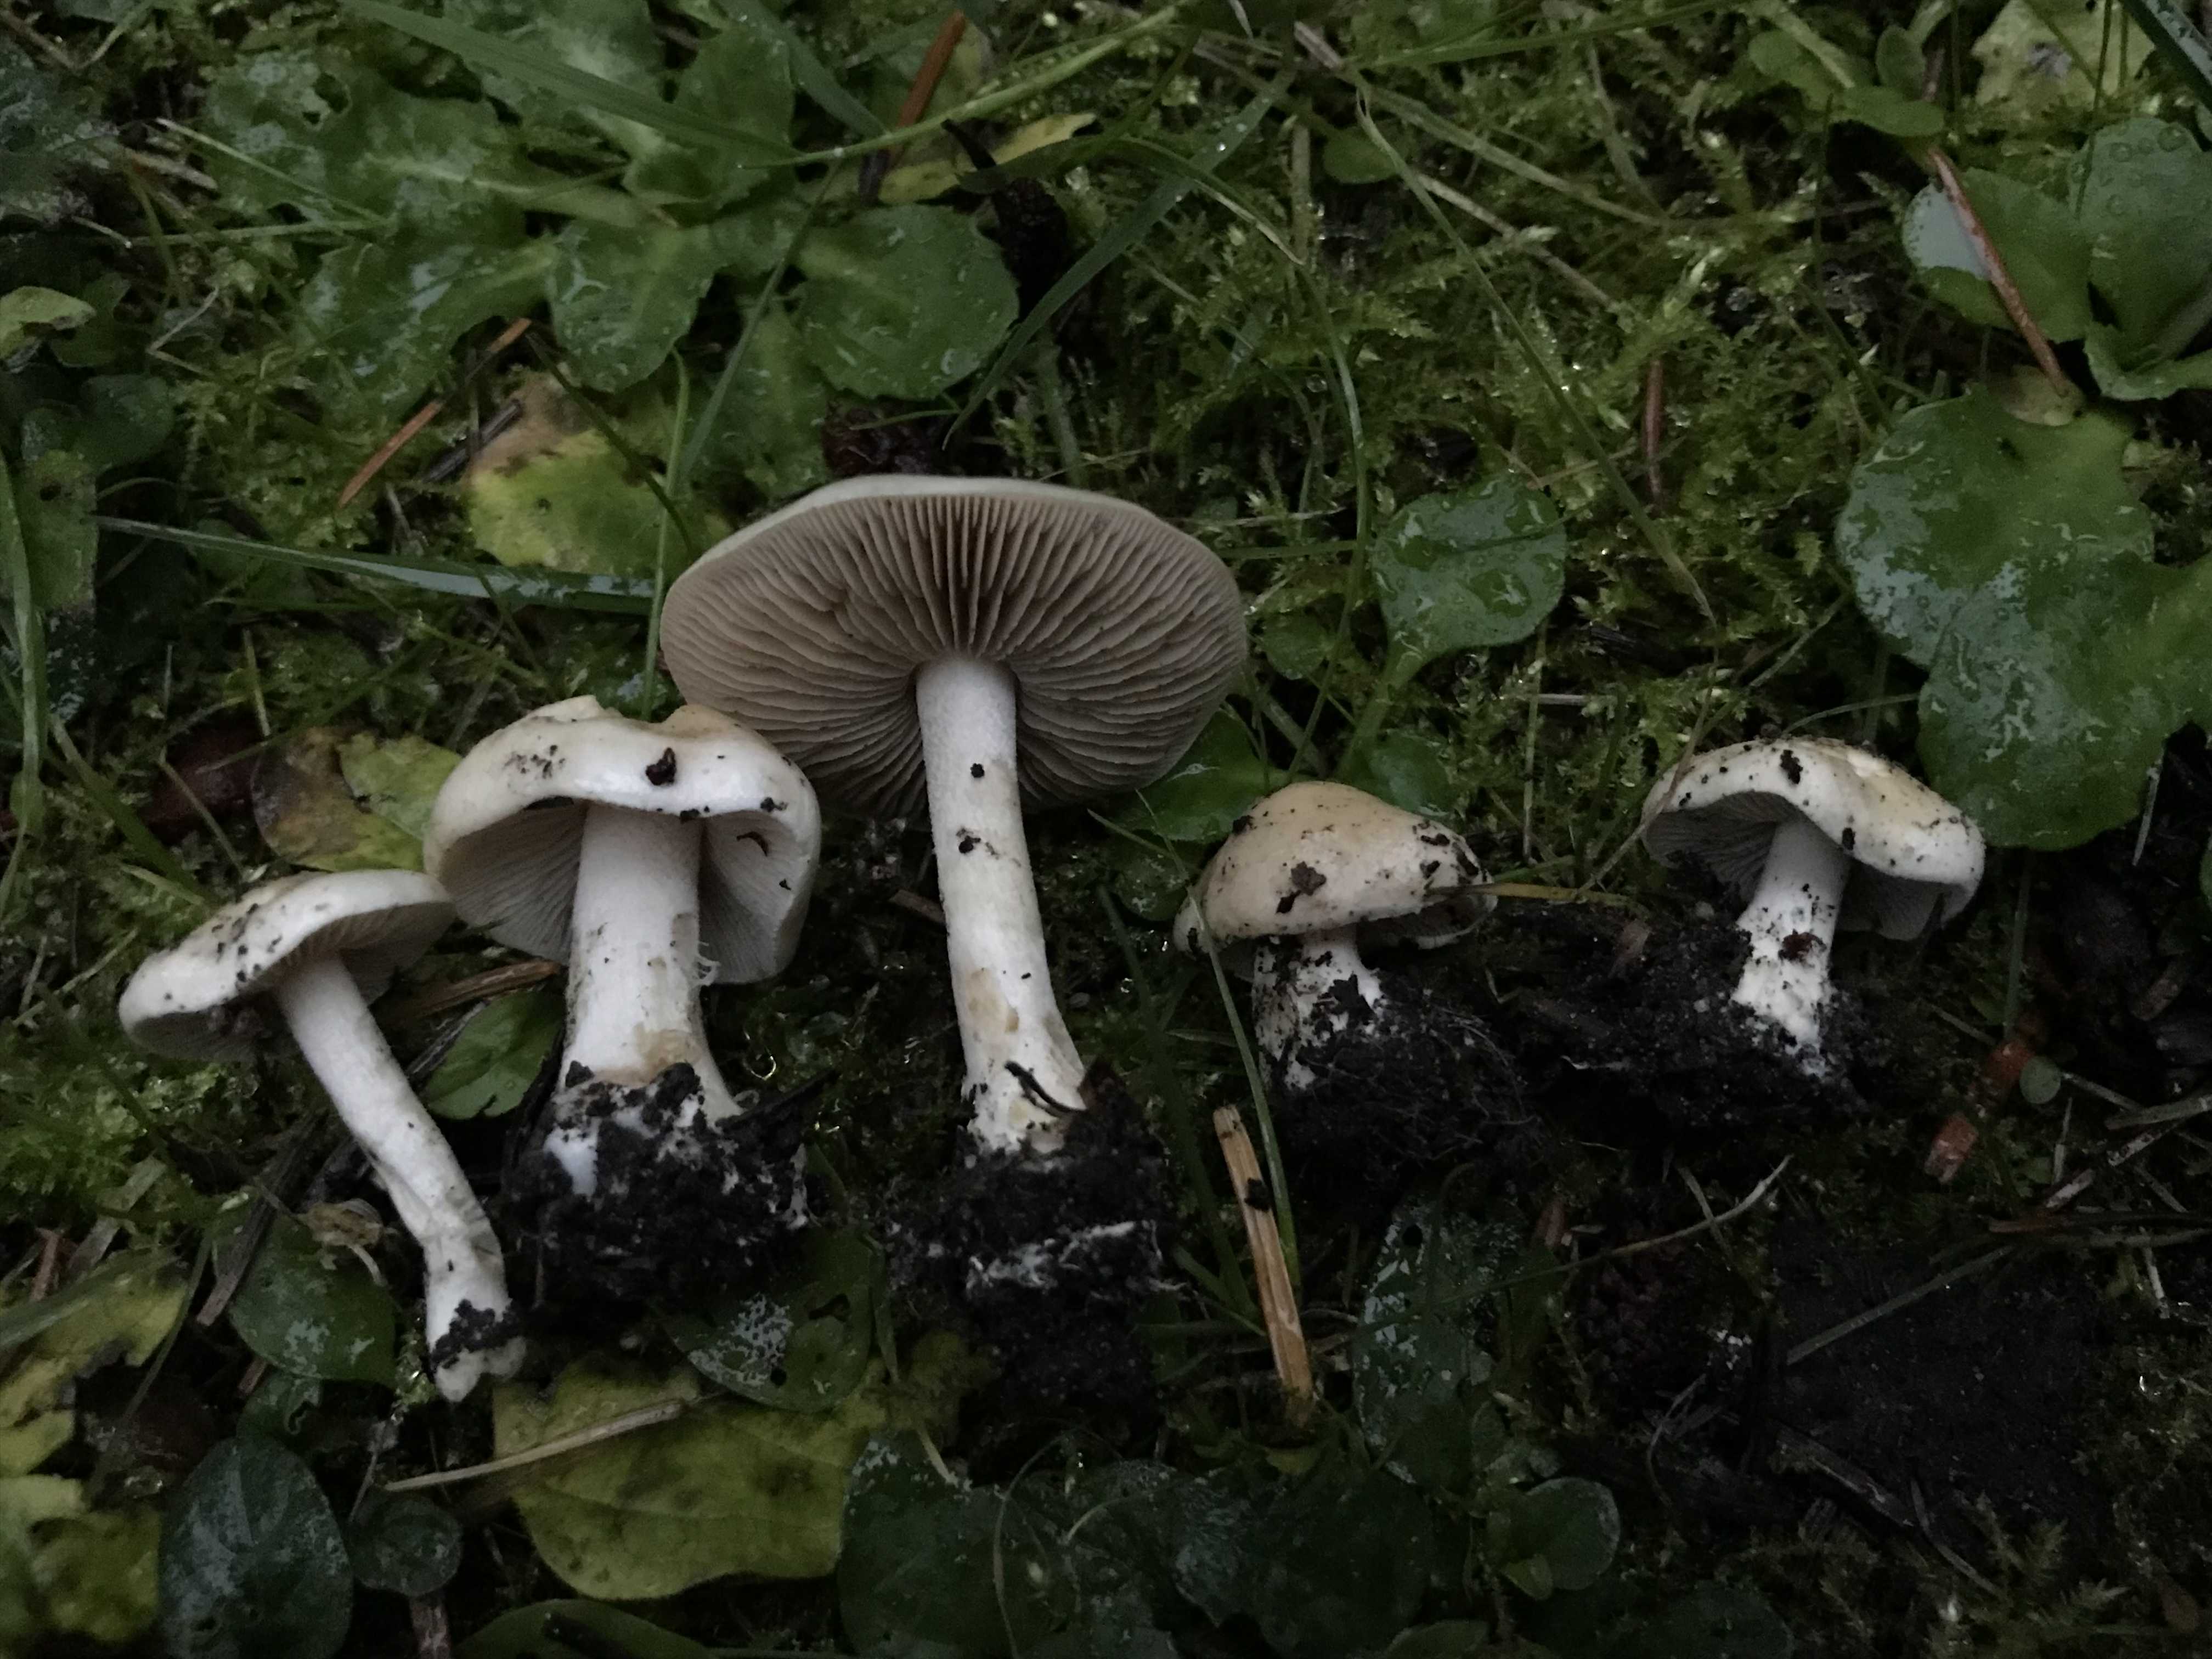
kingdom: Fungi
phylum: Basidiomycota
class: Agaricomycetes
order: Agaricales
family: Hymenogastraceae
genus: Hebeloma
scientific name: Hebeloma
